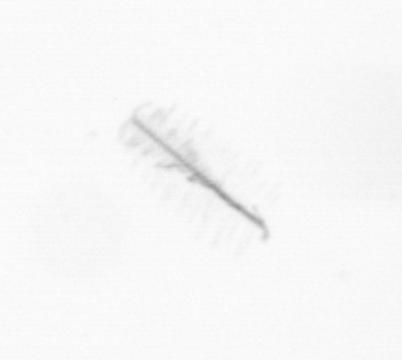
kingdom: Chromista
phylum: Ochrophyta
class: Bacillariophyceae
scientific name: Bacillariophyceae
